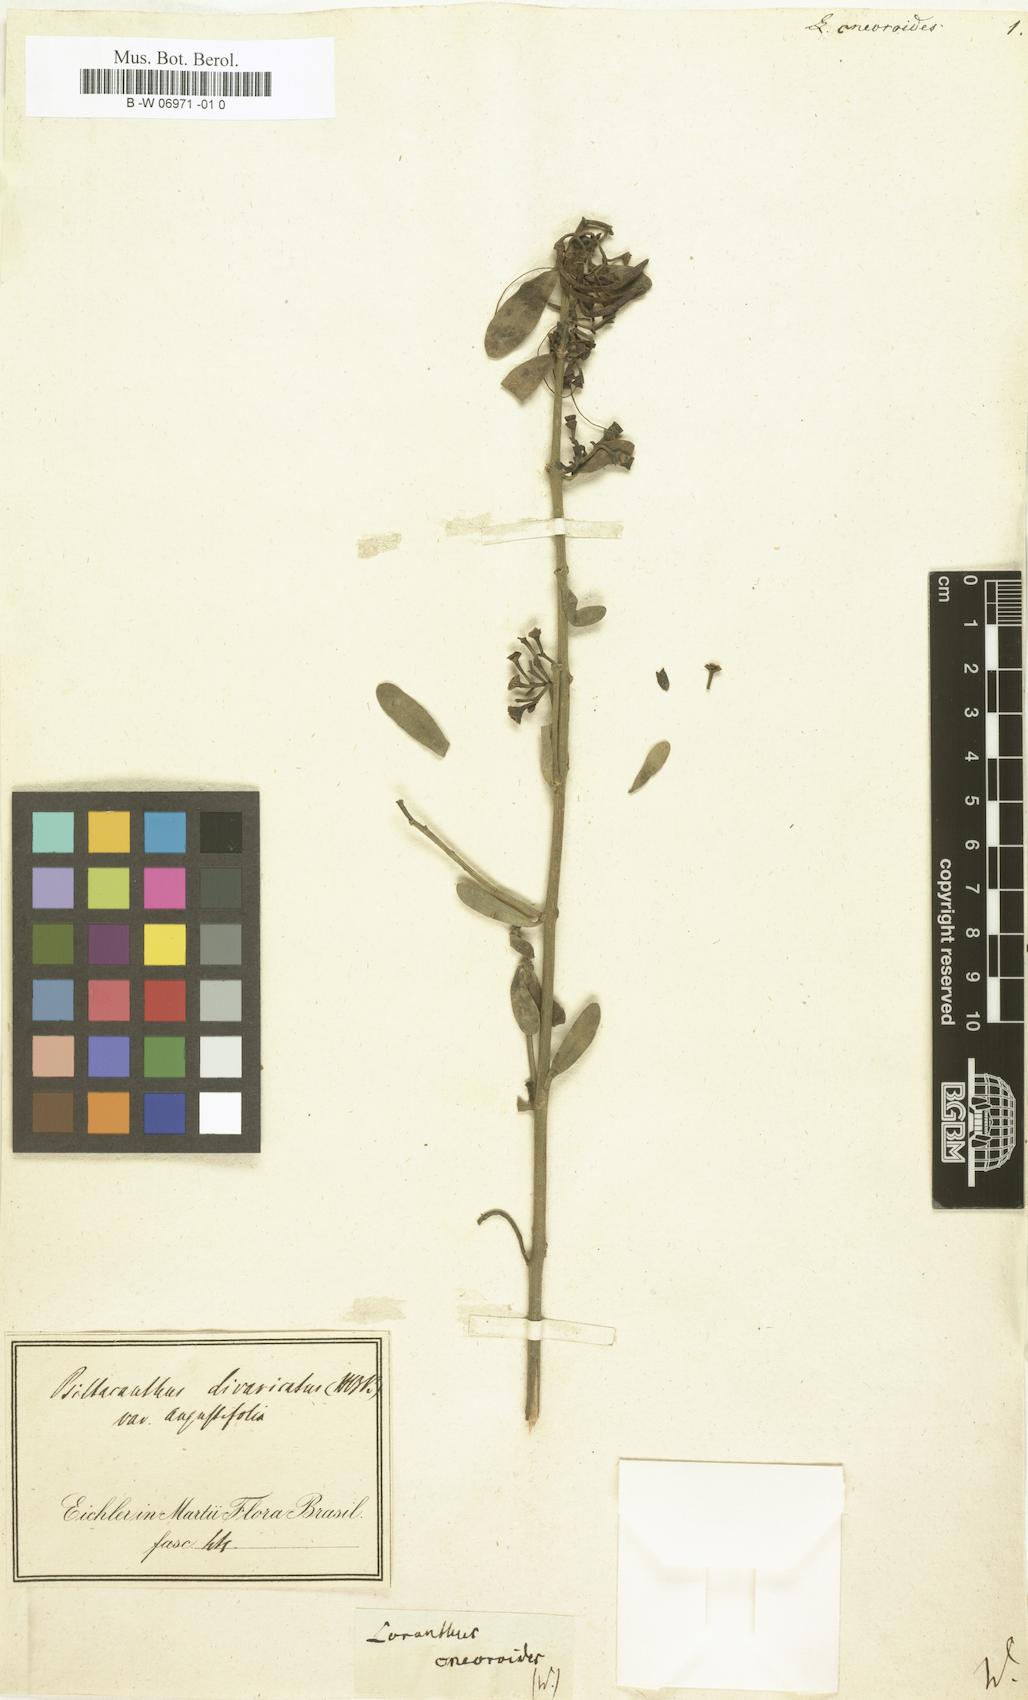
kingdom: Plantae
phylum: Tracheophyta
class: Magnoliopsida
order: Santalales
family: Loranthaceae
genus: Loranthus
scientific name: Loranthus cneoroides
